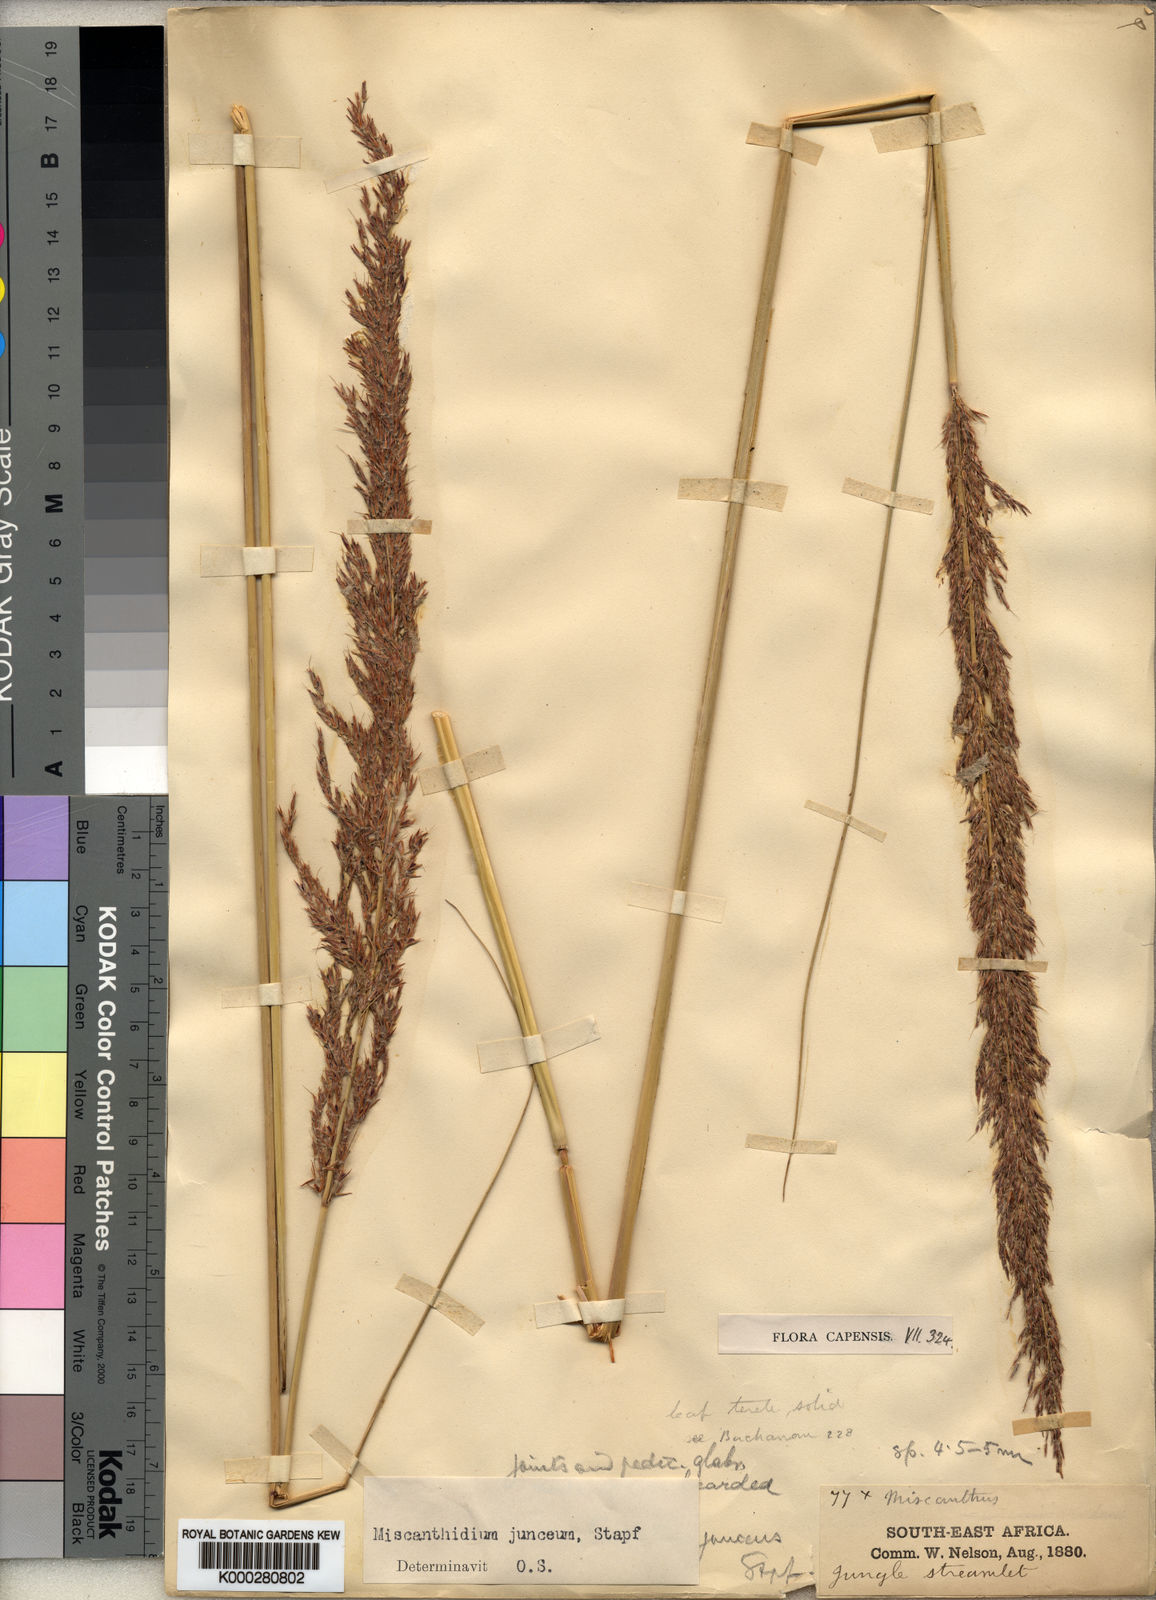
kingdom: Plantae
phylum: Tracheophyta
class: Liliopsida
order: Poales
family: Poaceae
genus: Miscanthidium
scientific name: Miscanthidium junceum
